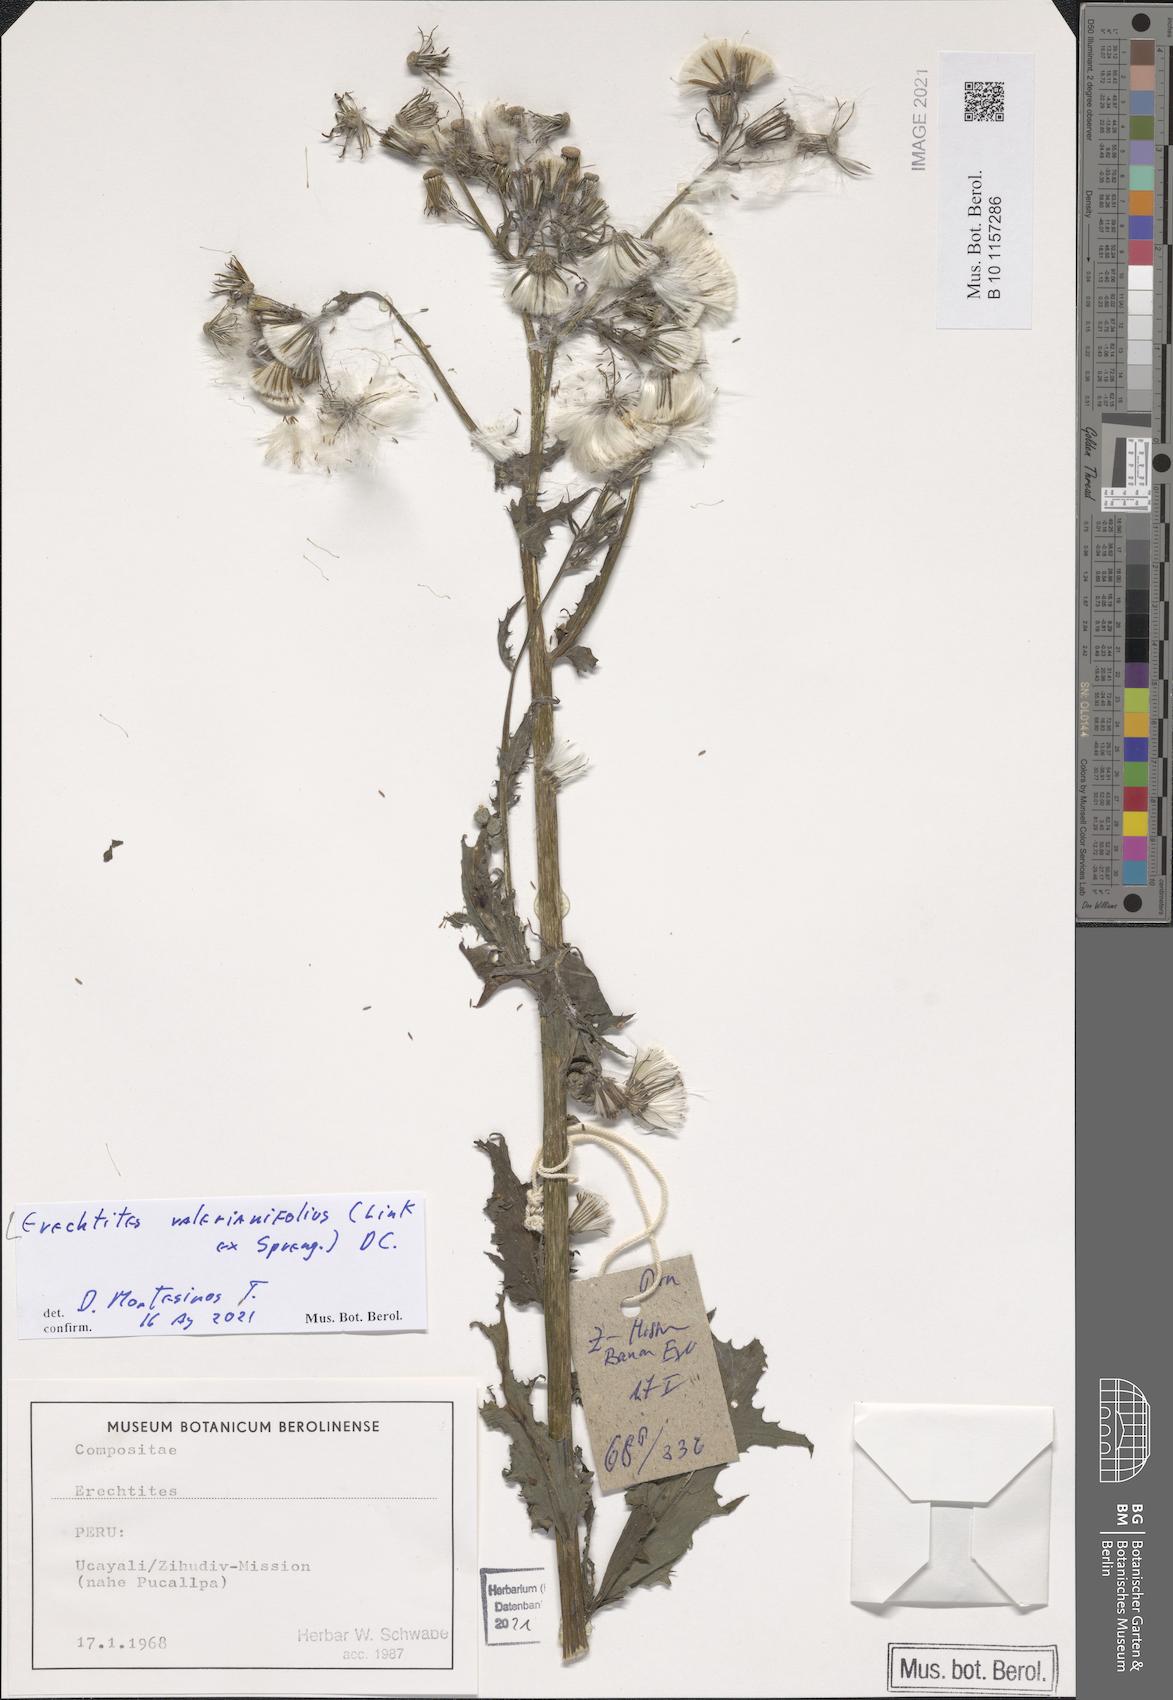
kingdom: Plantae
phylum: Tracheophyta
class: Magnoliopsida
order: Asterales
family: Asteraceae
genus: Erechtites
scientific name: Erechtites valerianifolius
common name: Tropical burnweed
